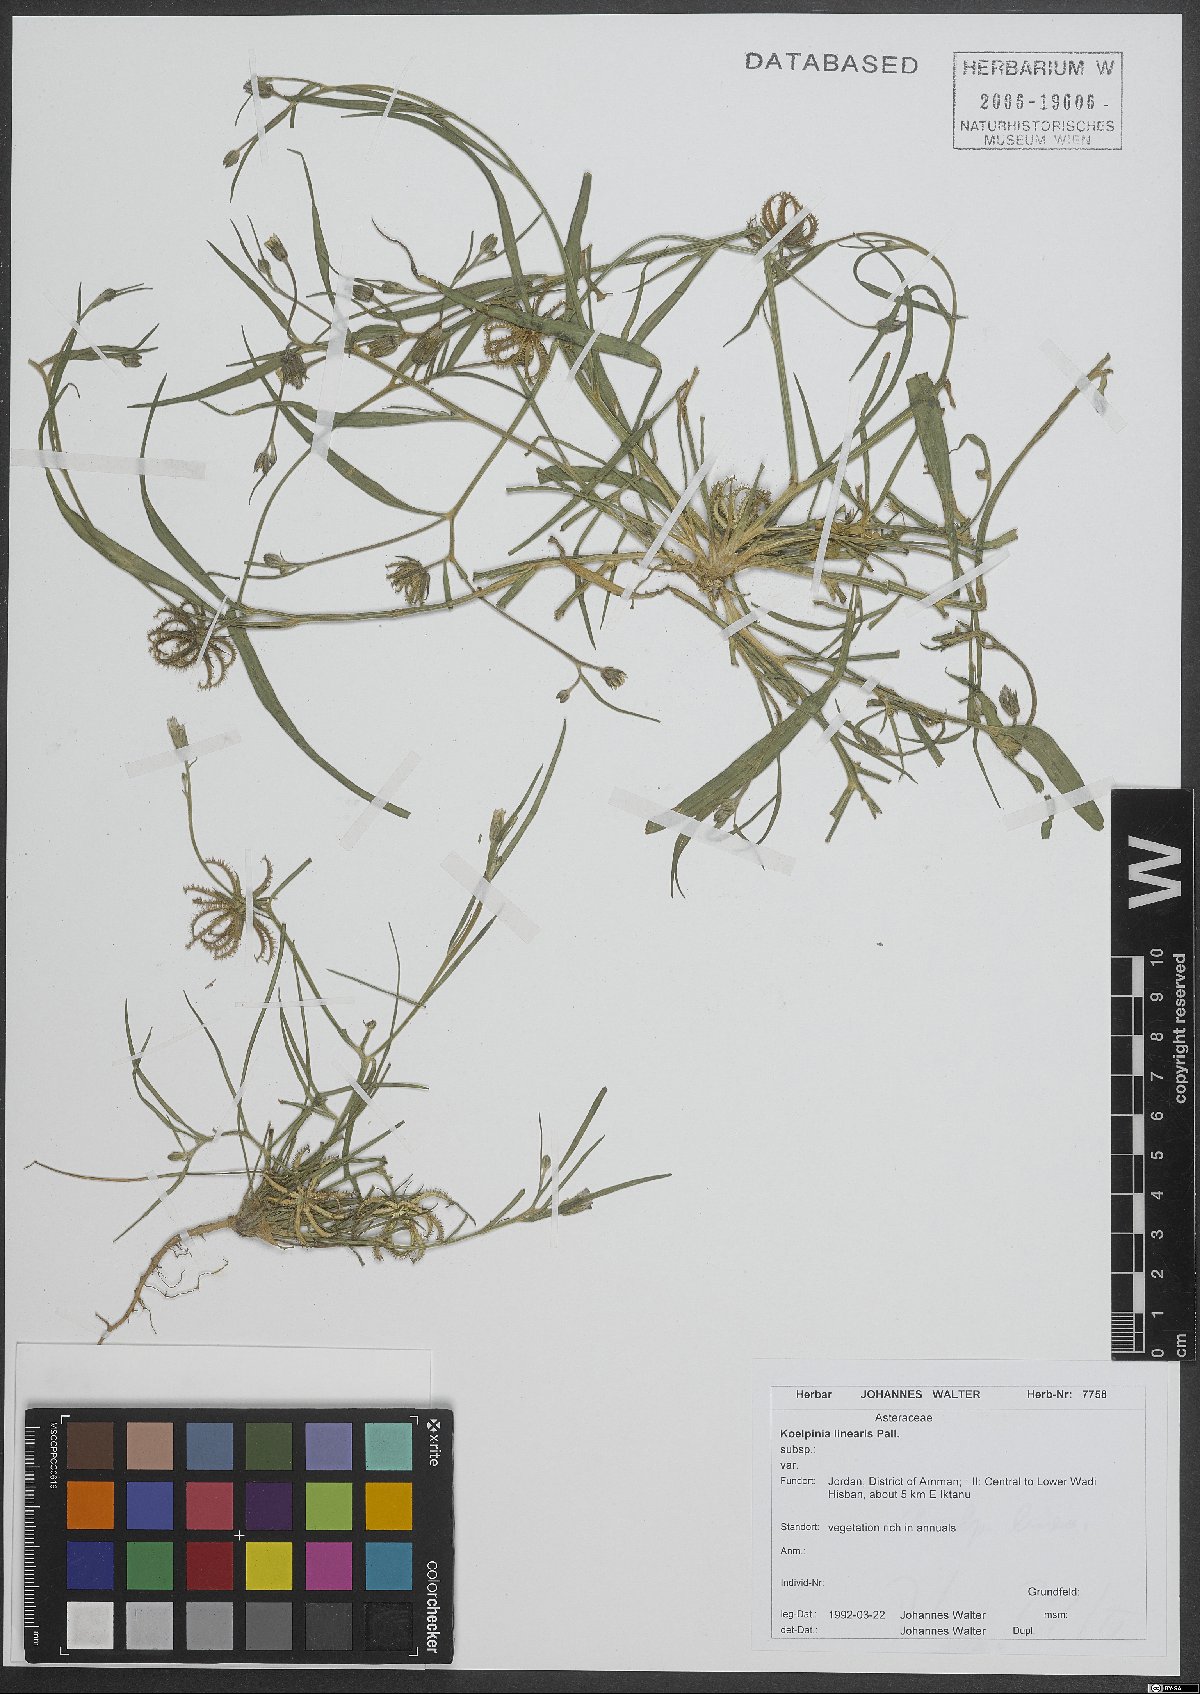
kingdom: Plantae
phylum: Tracheophyta
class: Magnoliopsida
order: Asterales
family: Asteraceae
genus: Koelpinia
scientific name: Koelpinia linearis
